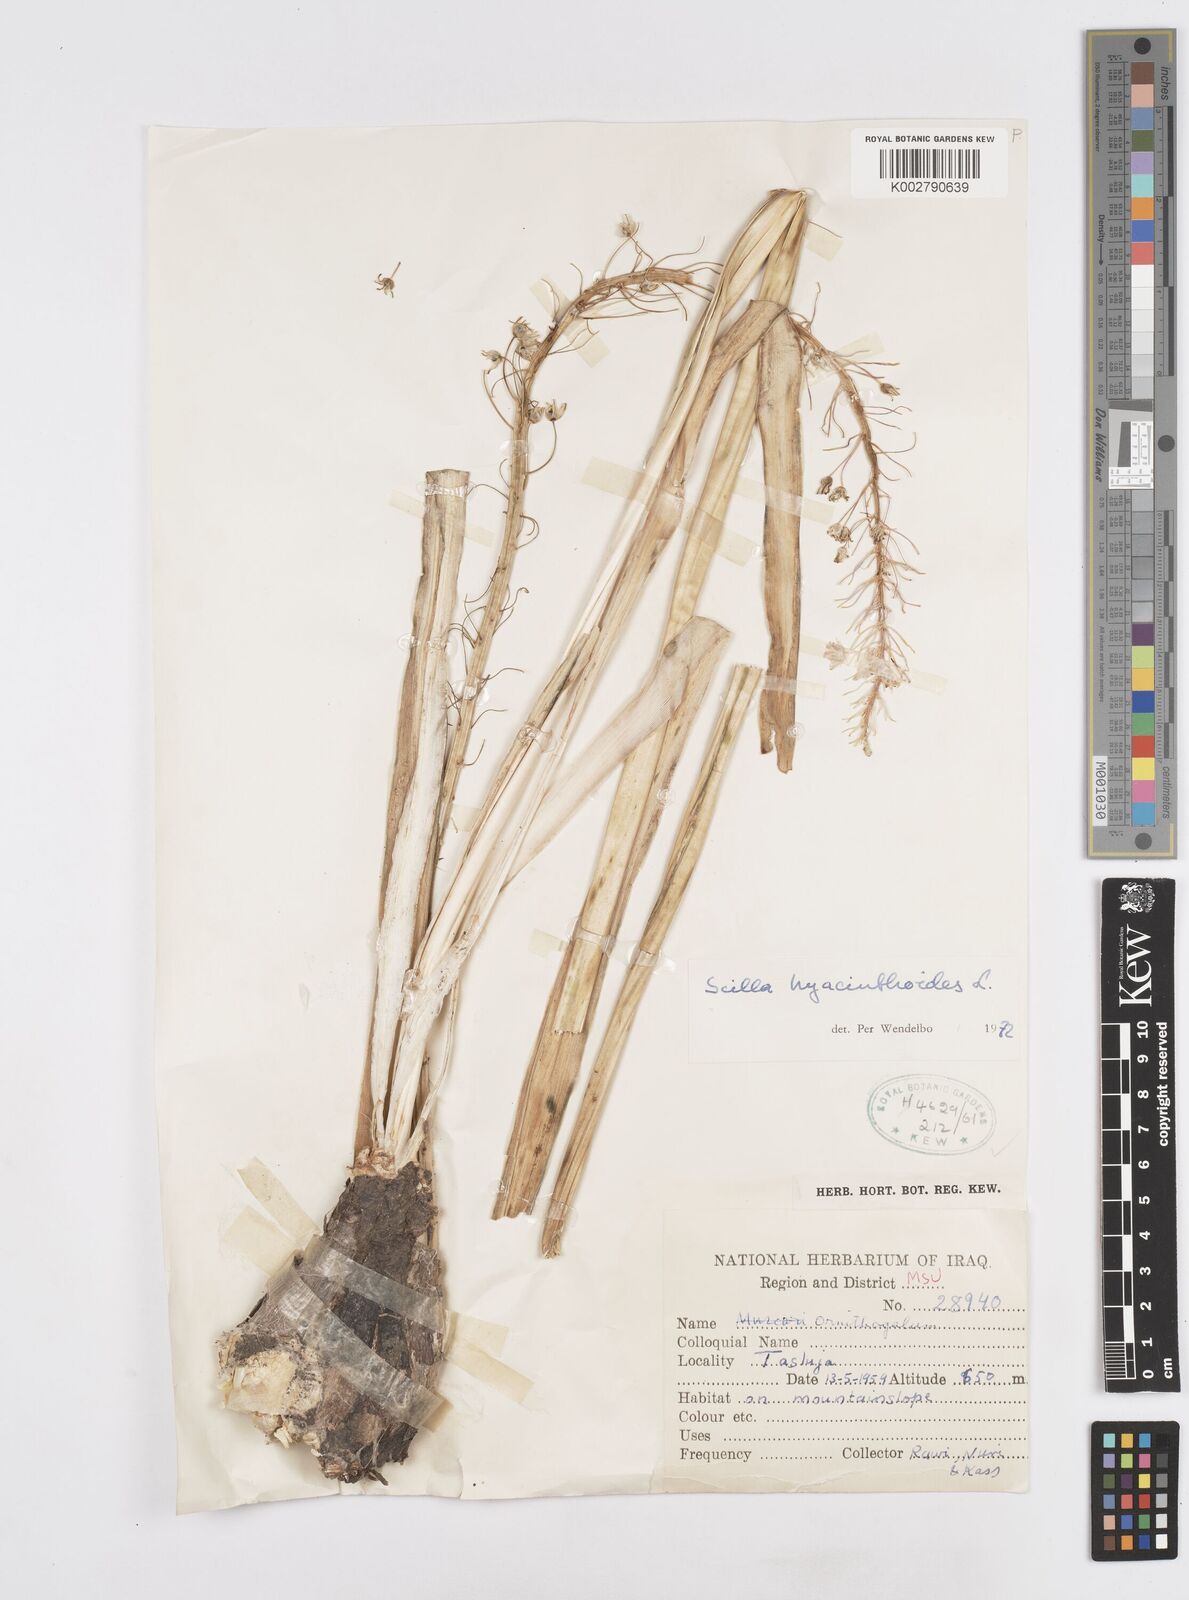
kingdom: Plantae
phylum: Tracheophyta
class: Liliopsida
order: Asparagales
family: Asparagaceae
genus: Scilla
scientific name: Scilla hyacinthoides
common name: Scilla
